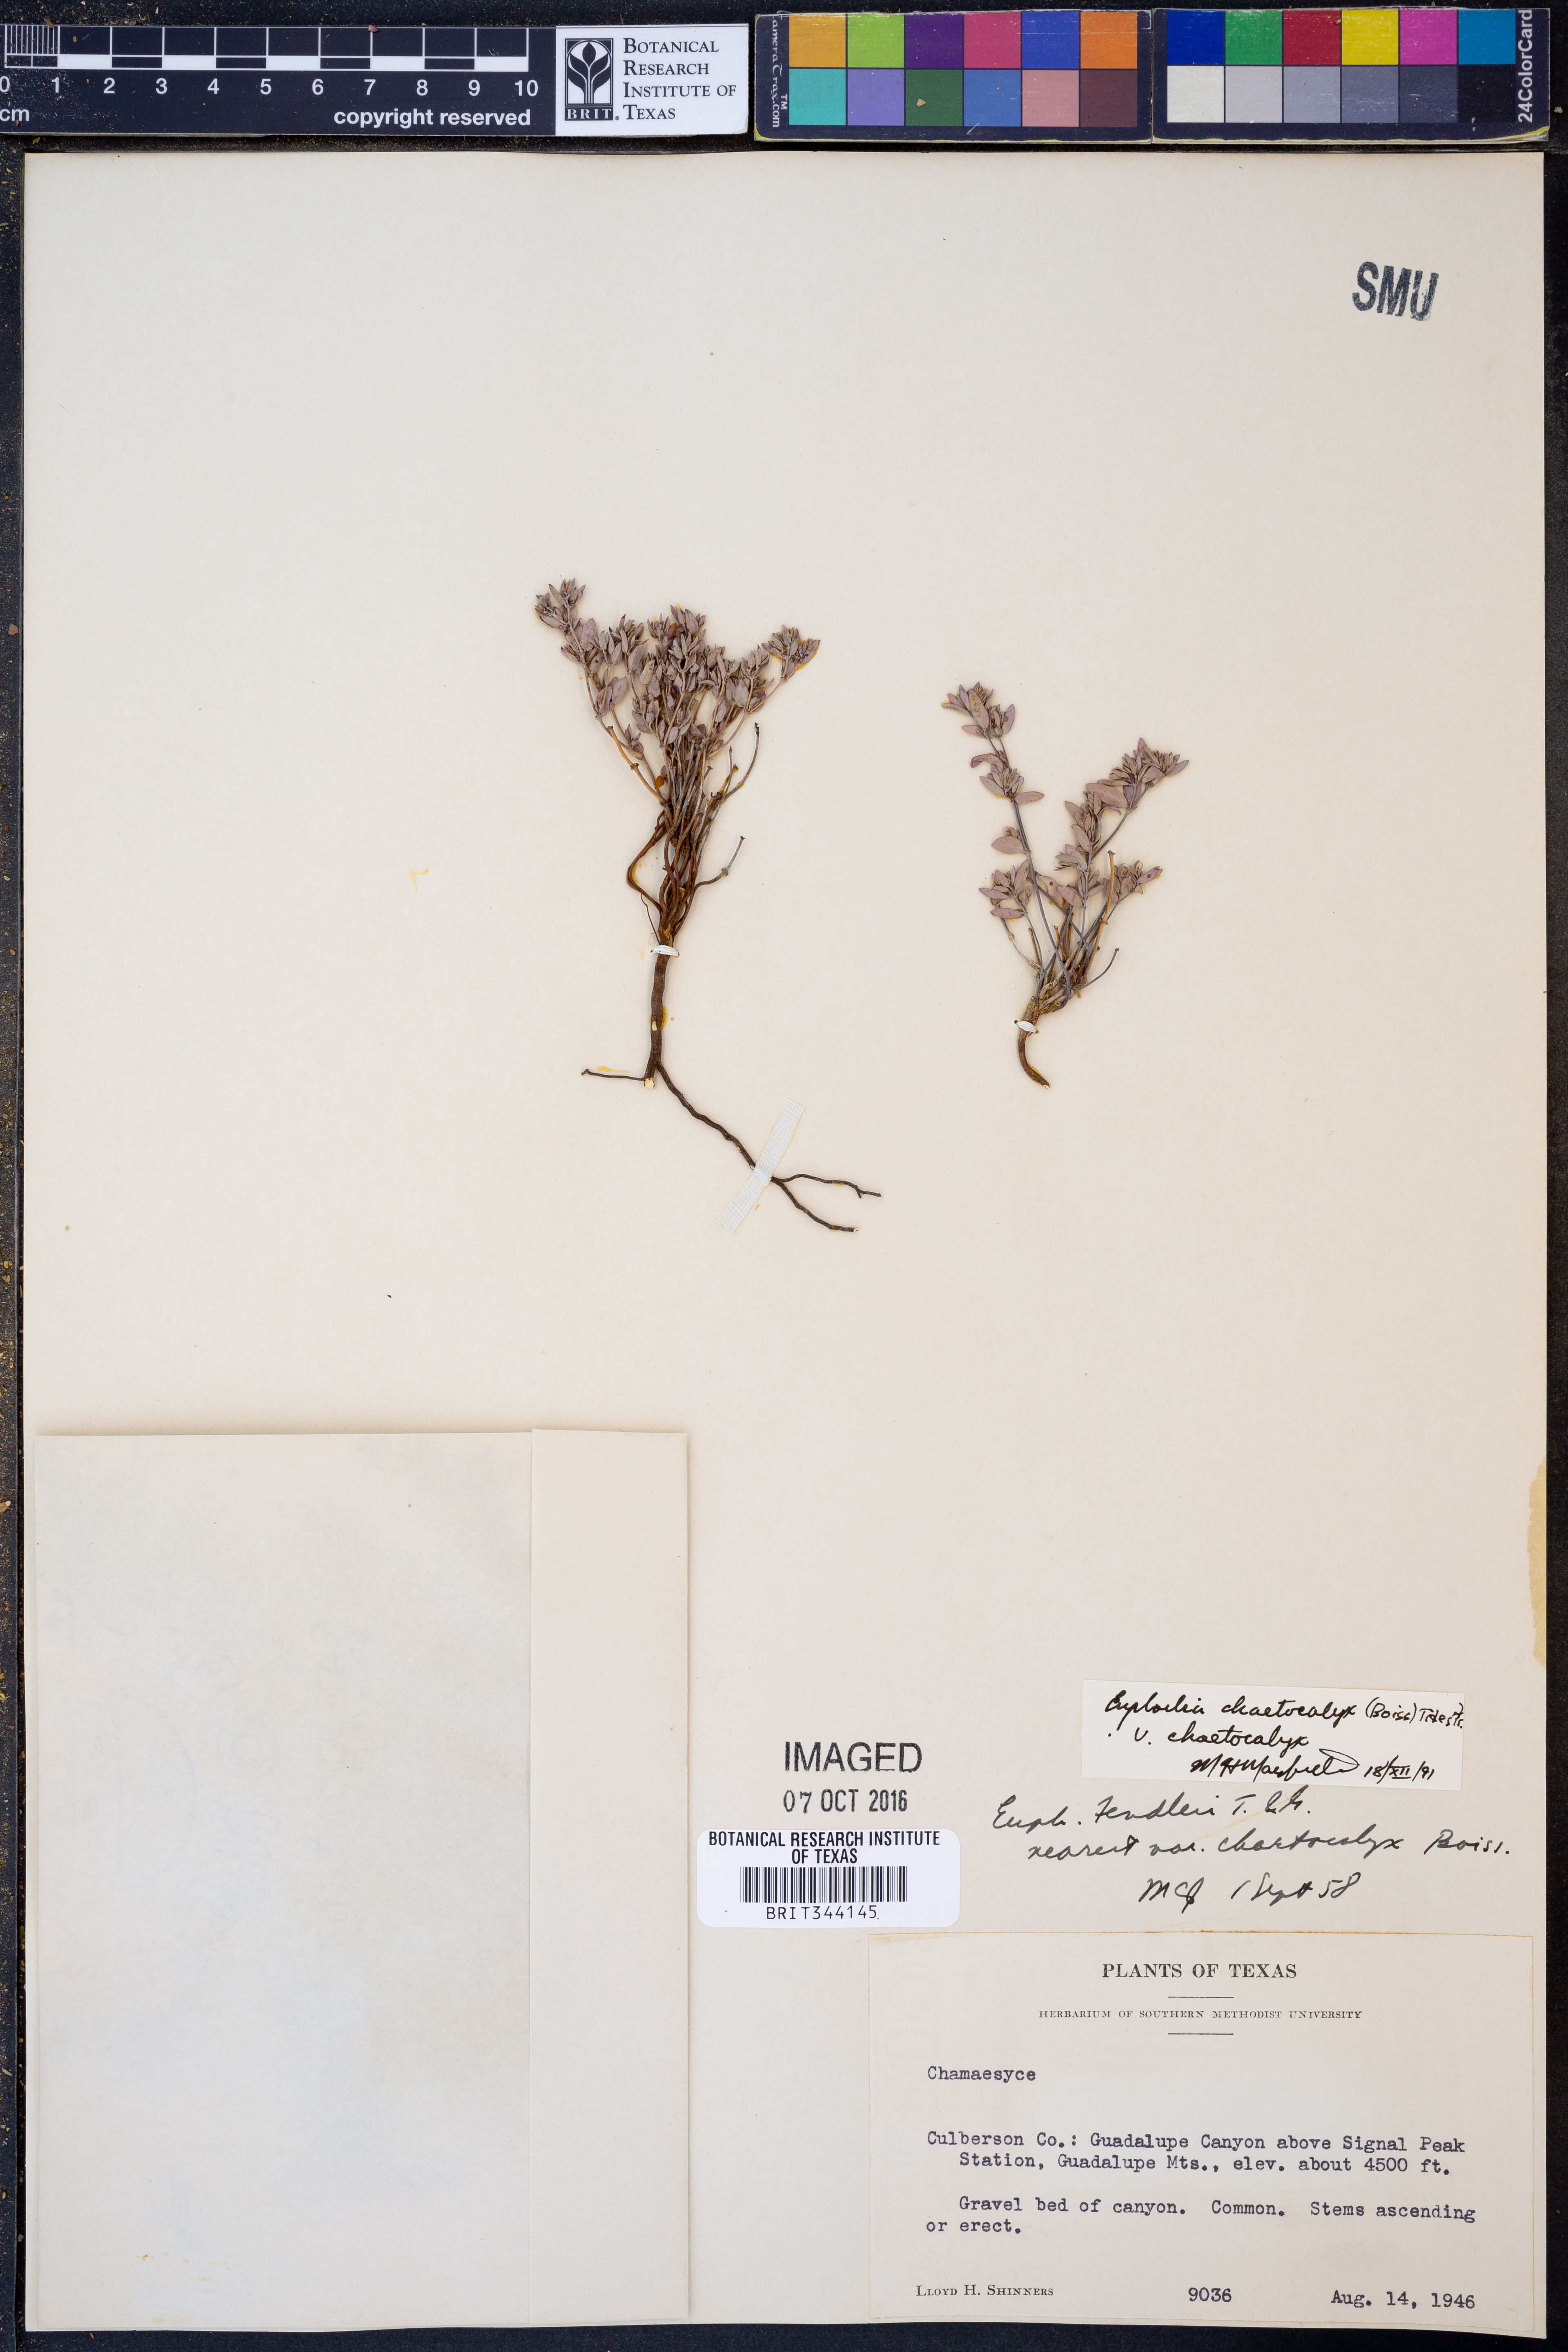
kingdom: Plantae
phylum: Tracheophyta
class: Magnoliopsida
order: Malpighiales
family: Euphorbiaceae
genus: Euphorbia
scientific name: Euphorbia chaetocalyx
